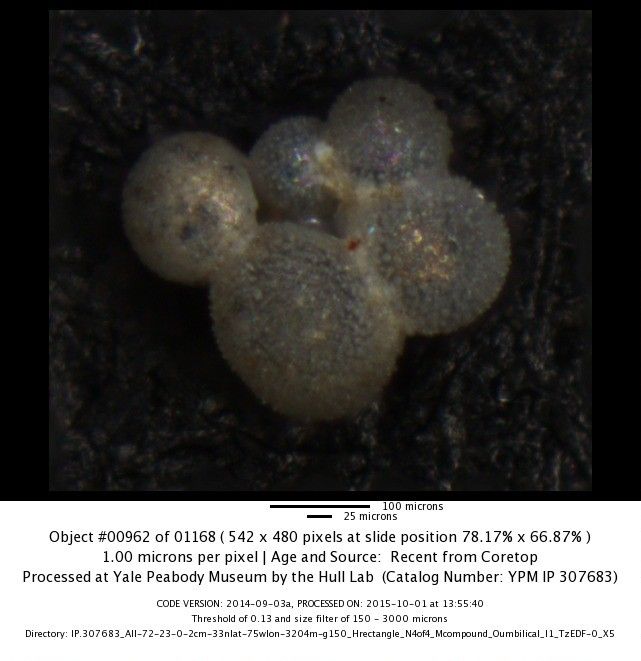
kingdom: Chromista
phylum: Foraminifera
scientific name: Foraminifera
